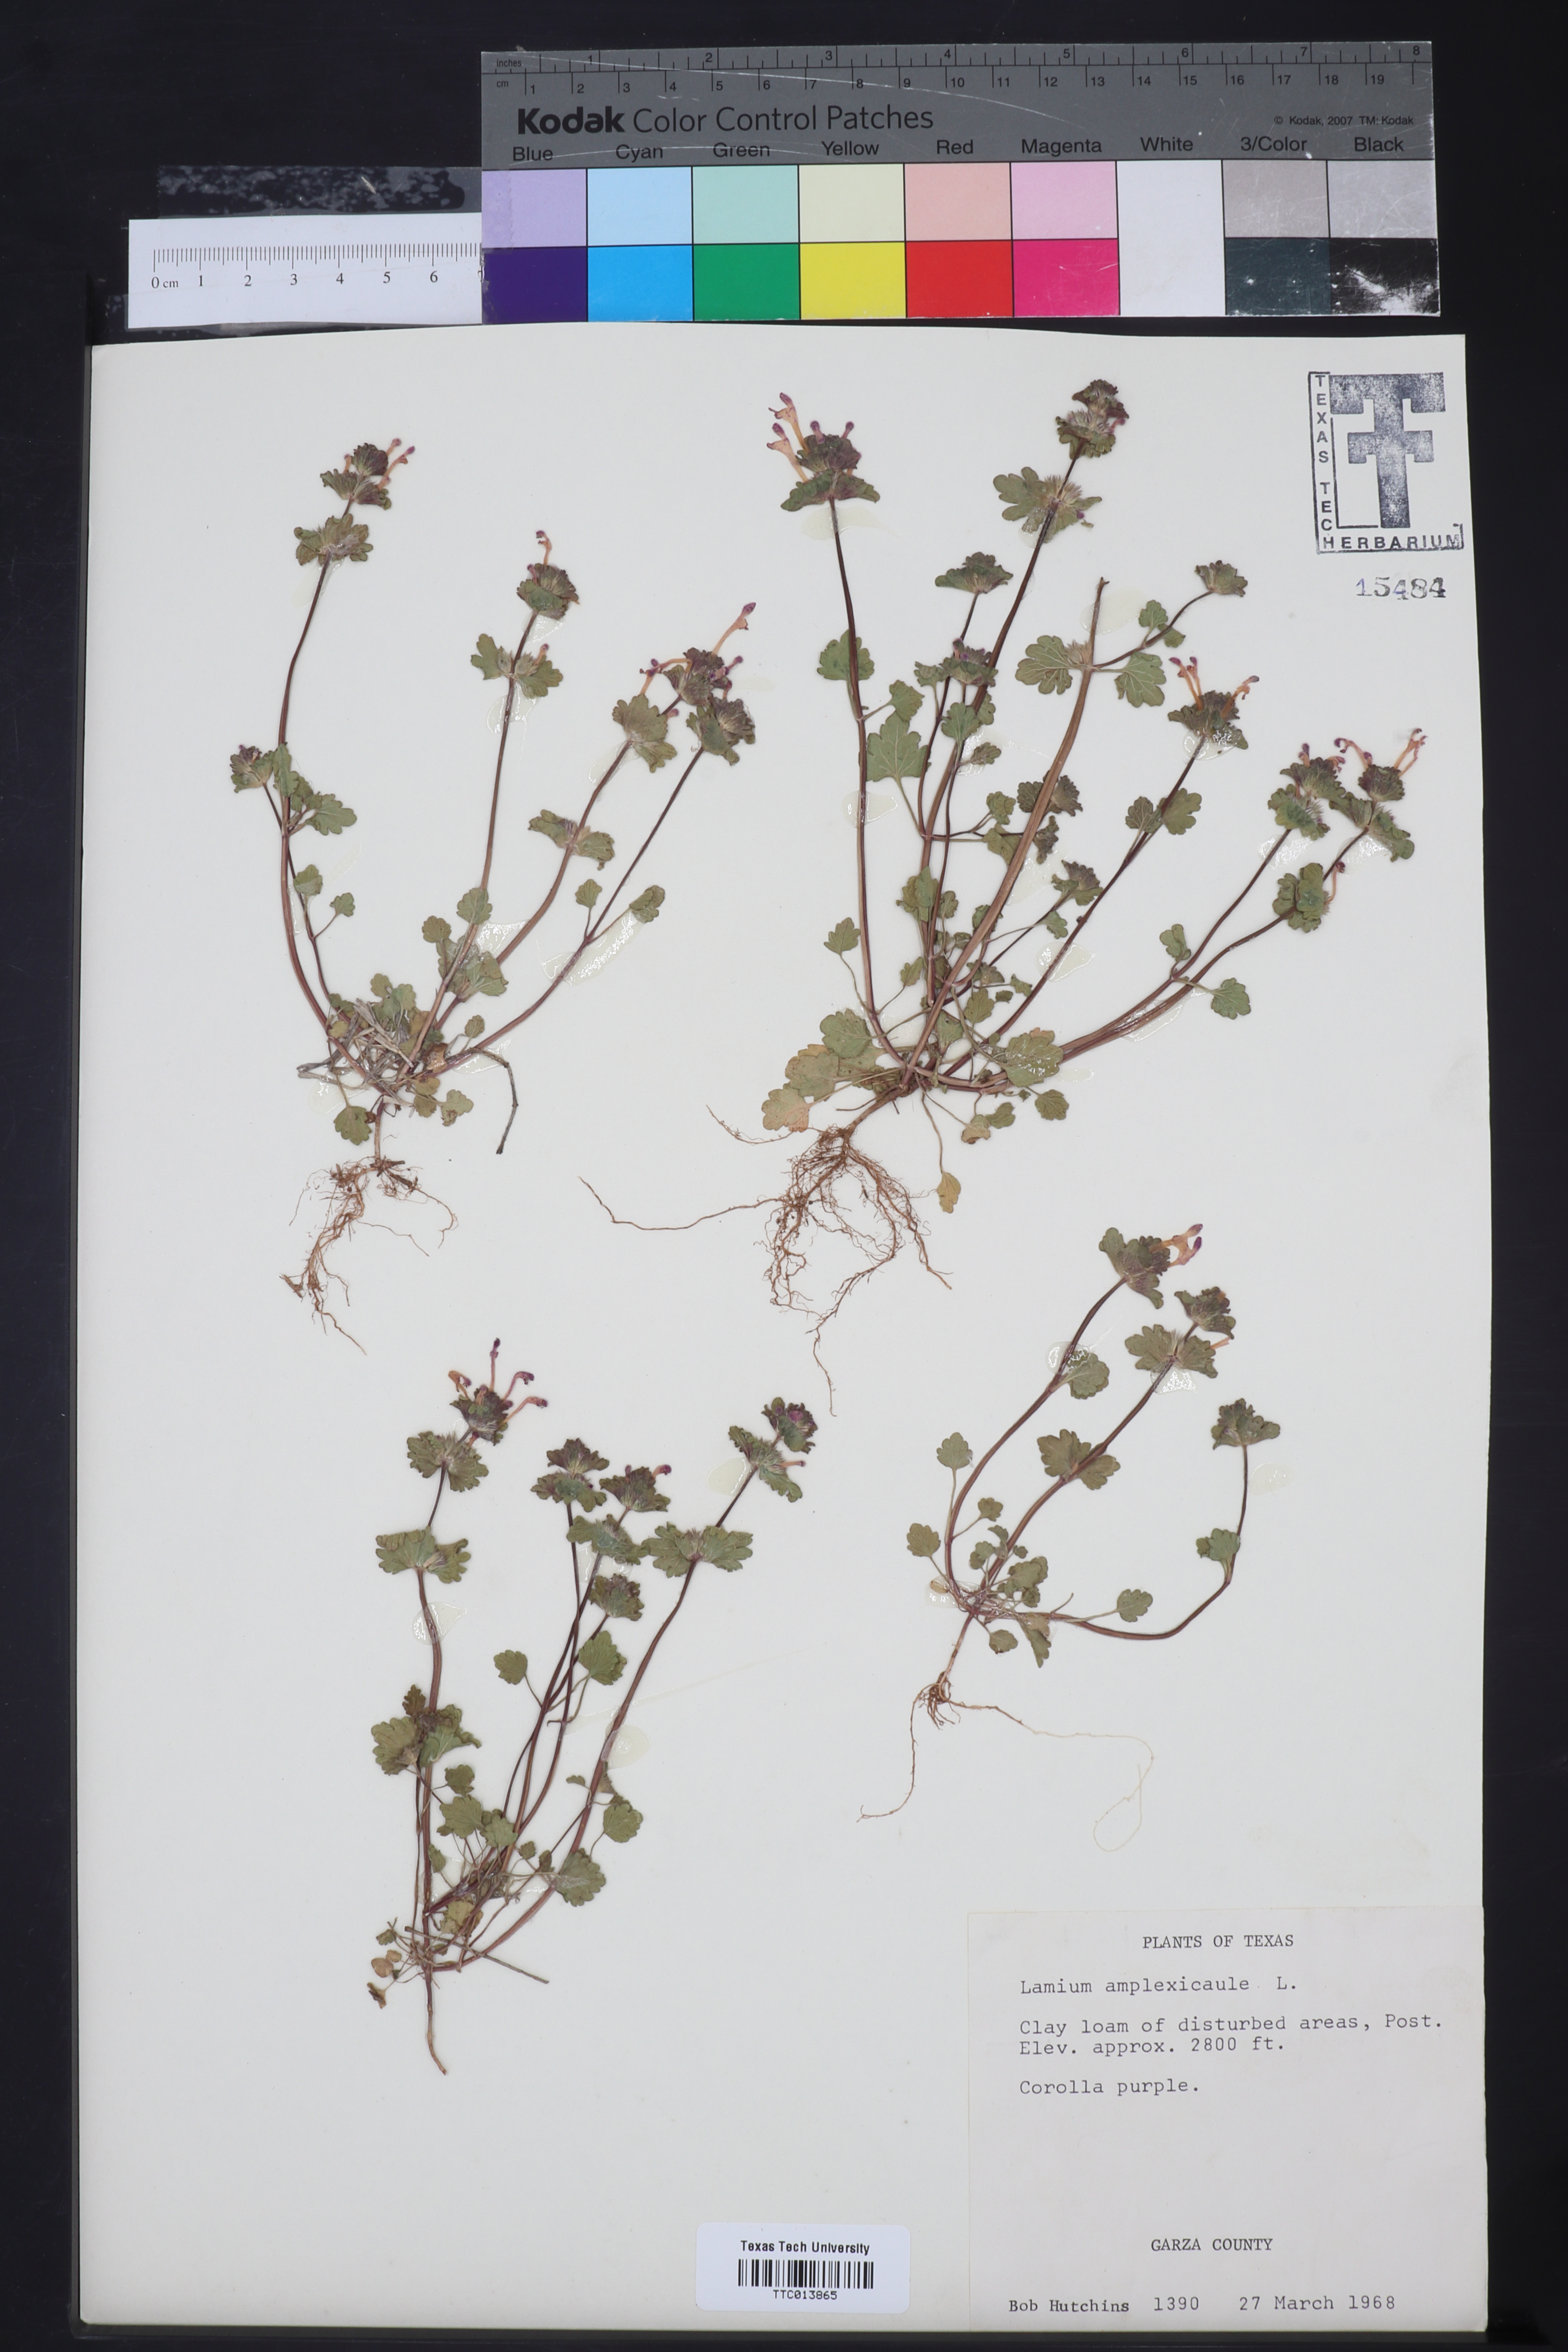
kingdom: Plantae
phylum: Tracheophyta
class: Magnoliopsida
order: Lamiales
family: Lamiaceae
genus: Lamium
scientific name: Lamium amplexicaule
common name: Henbit dead-nettle
